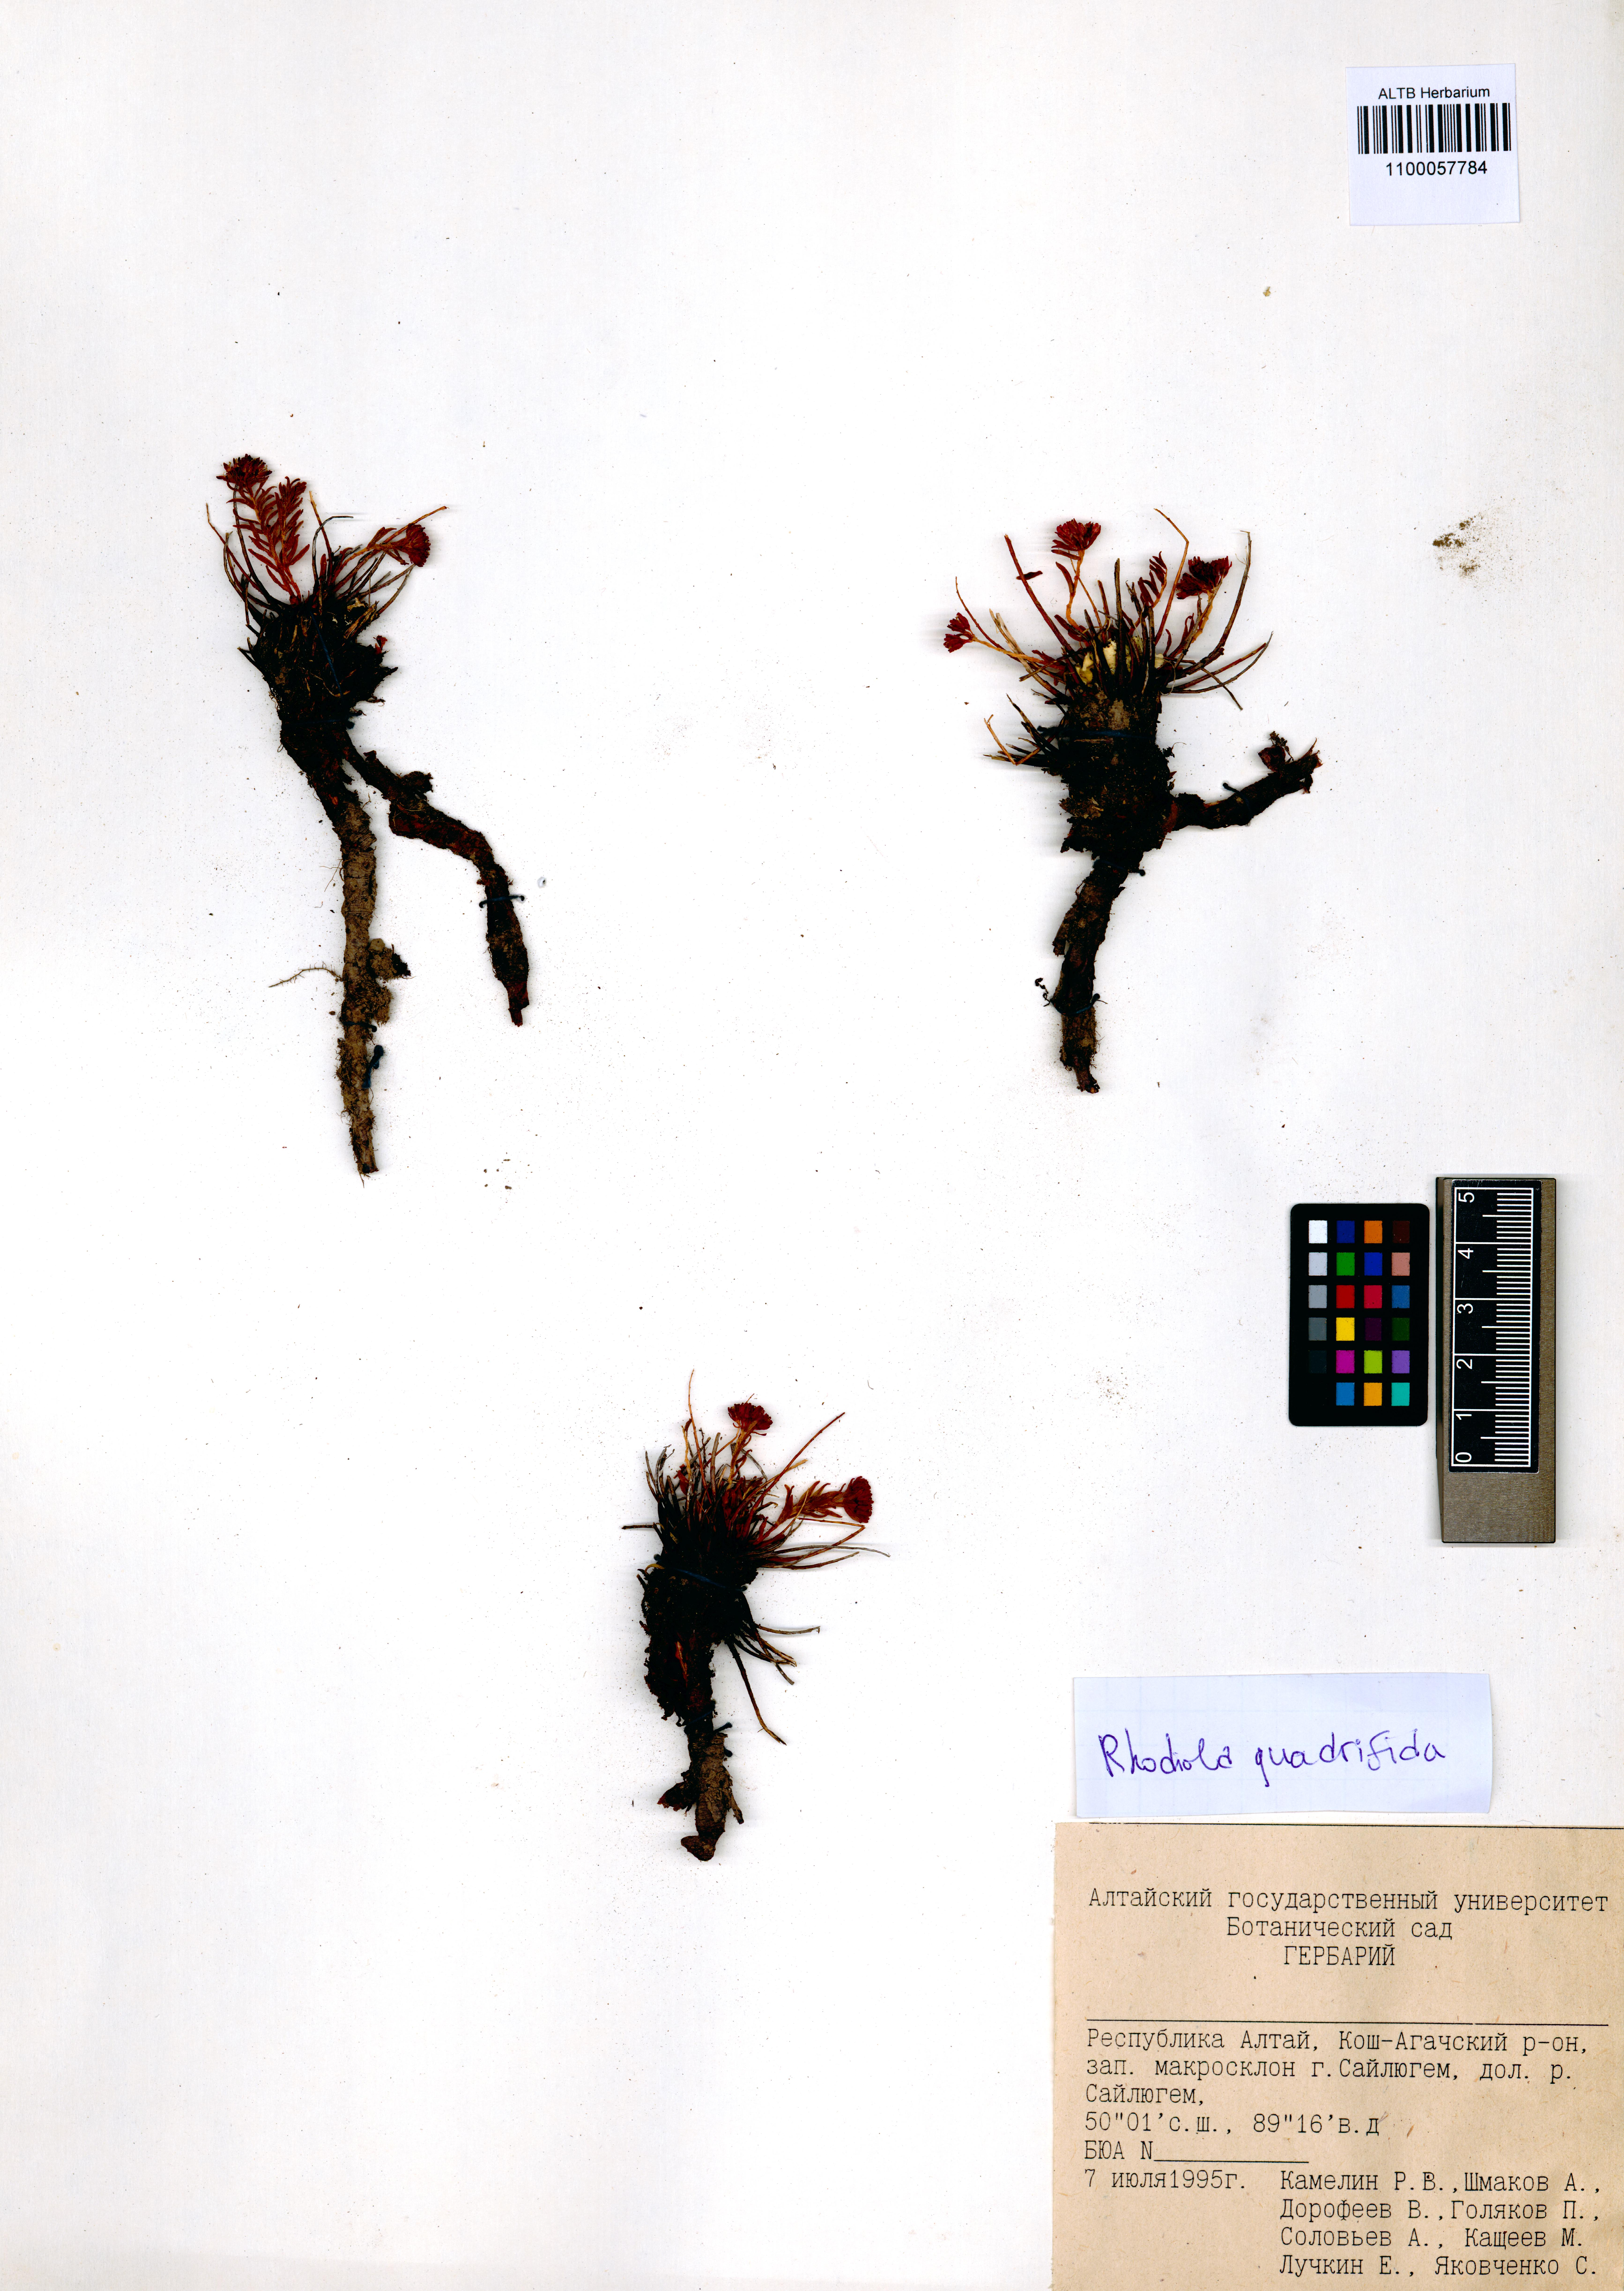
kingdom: Plantae
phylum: Tracheophyta
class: Magnoliopsida
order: Saxifragales
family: Crassulaceae
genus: Rhodiola
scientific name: Rhodiola quadrifida
